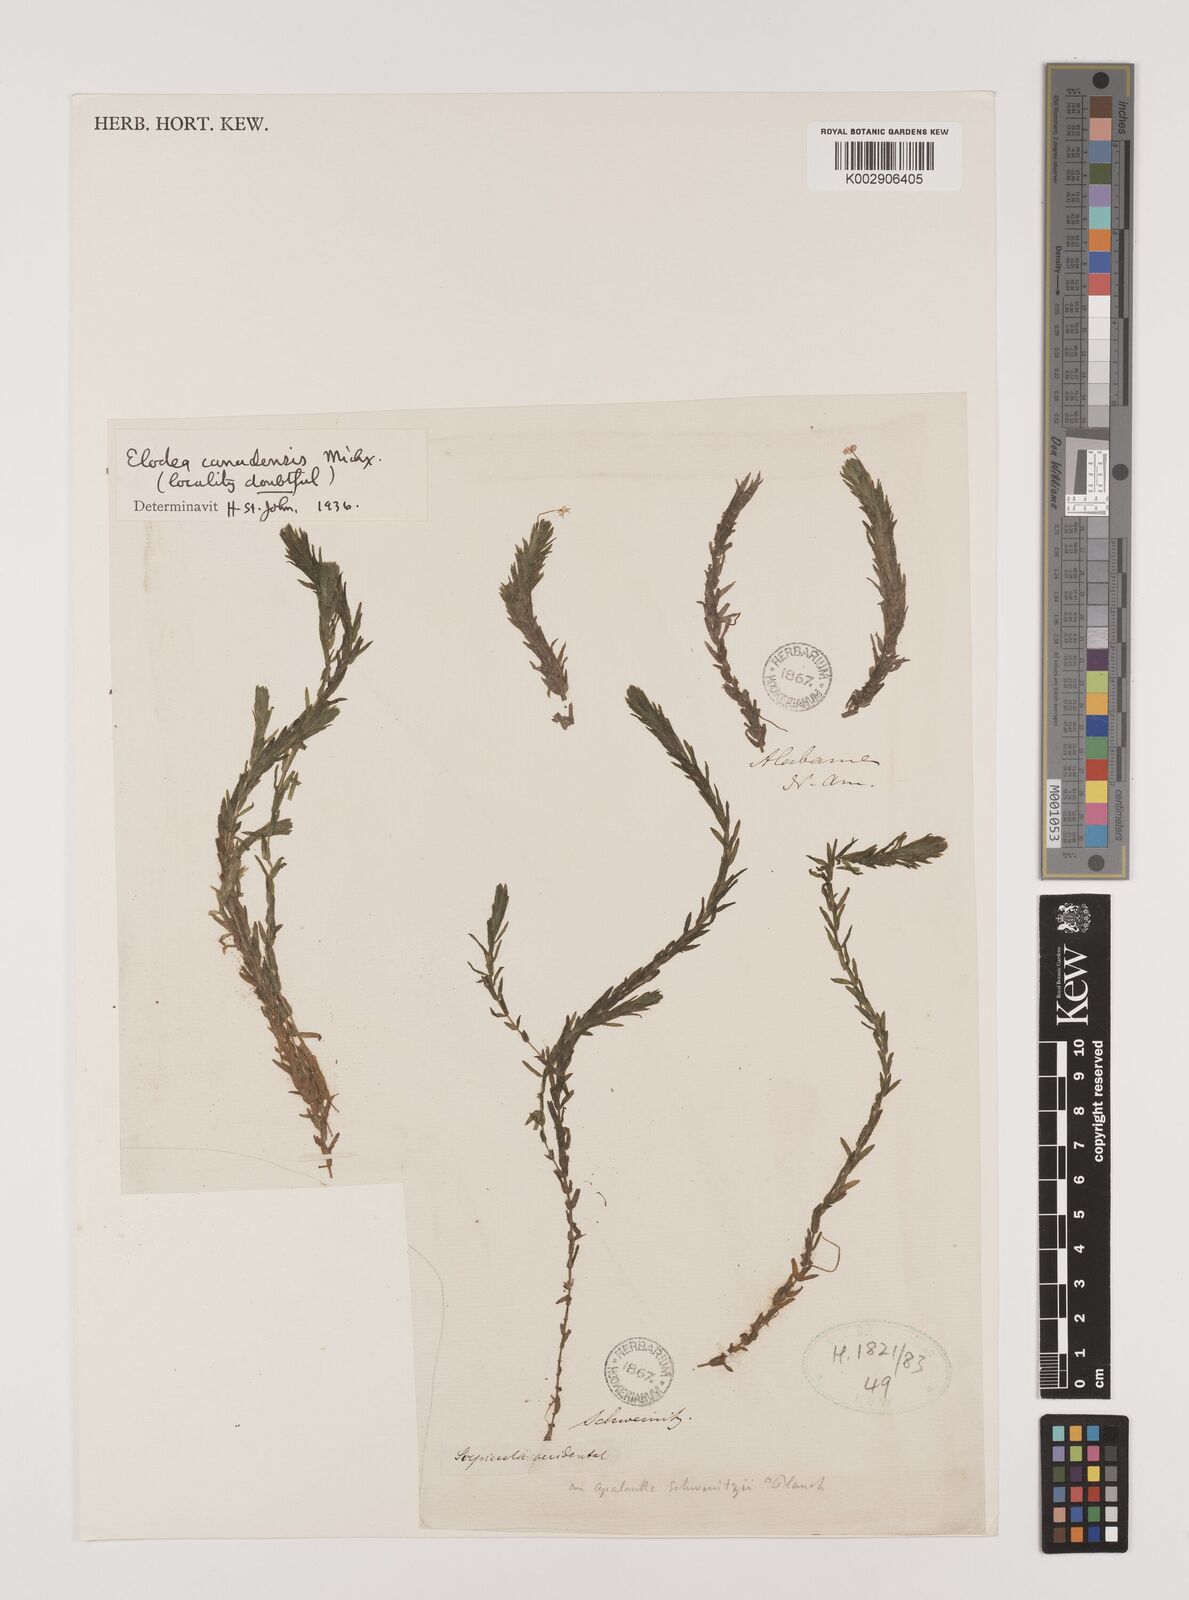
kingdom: Plantae
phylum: Tracheophyta
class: Liliopsida
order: Alismatales
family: Hydrocharitaceae
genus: Elodea
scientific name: Elodea canadensis
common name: Canadian waterweed
